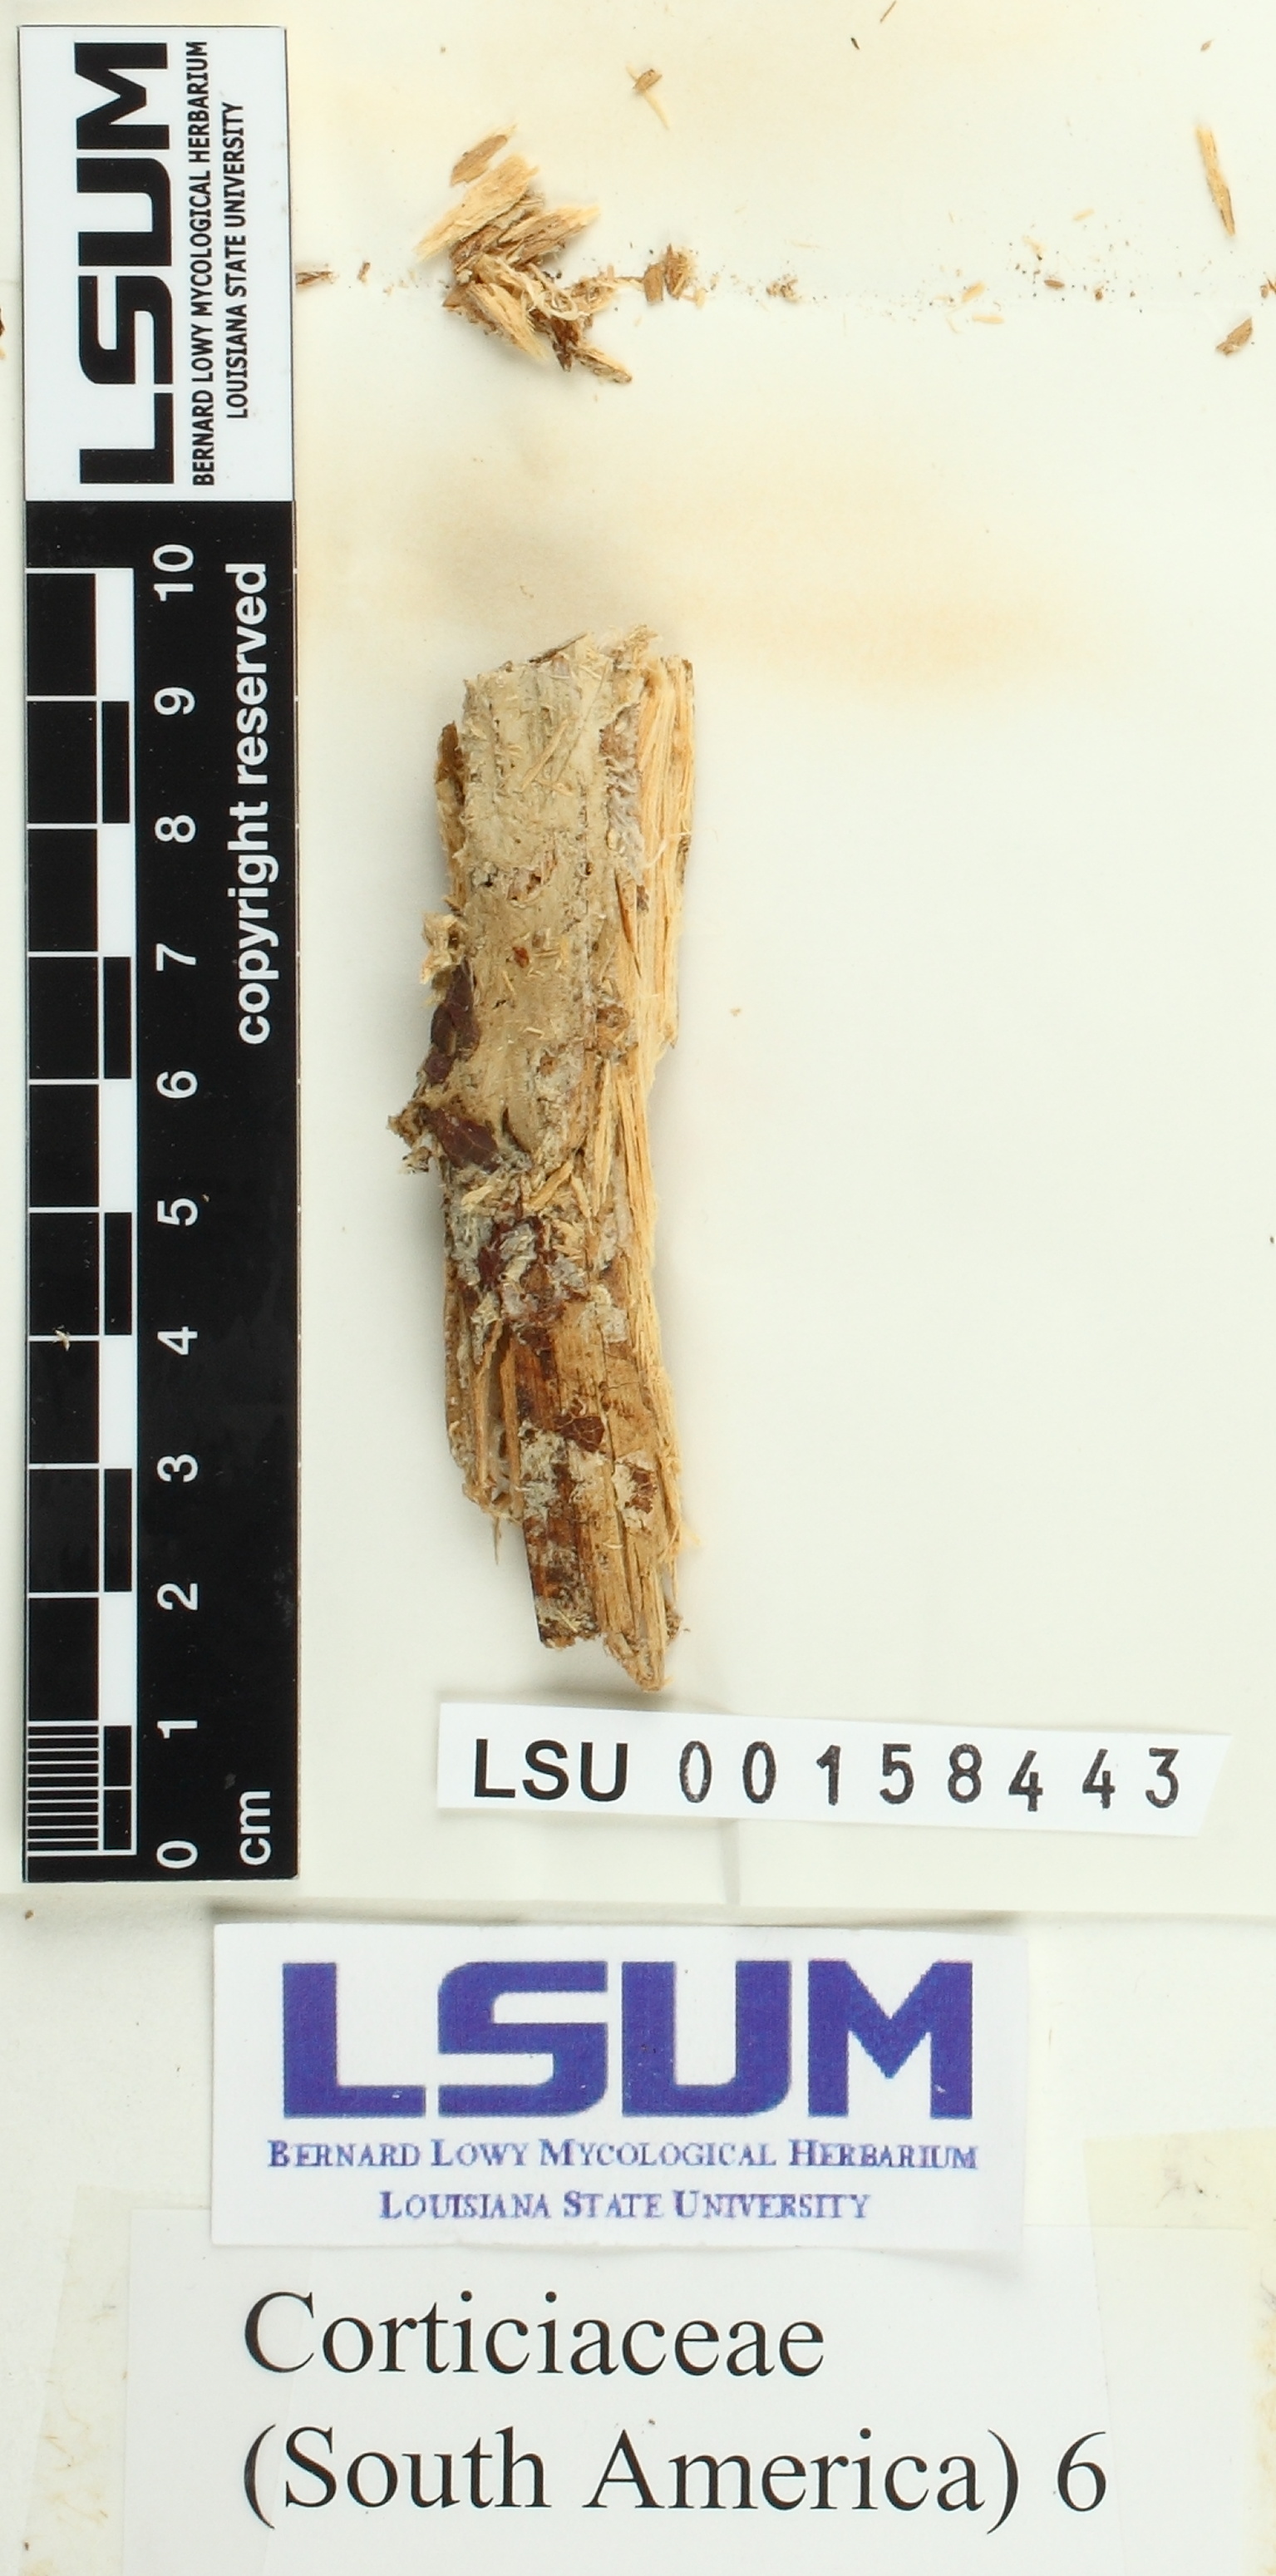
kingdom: Fungi
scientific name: Fungi
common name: Fungi
